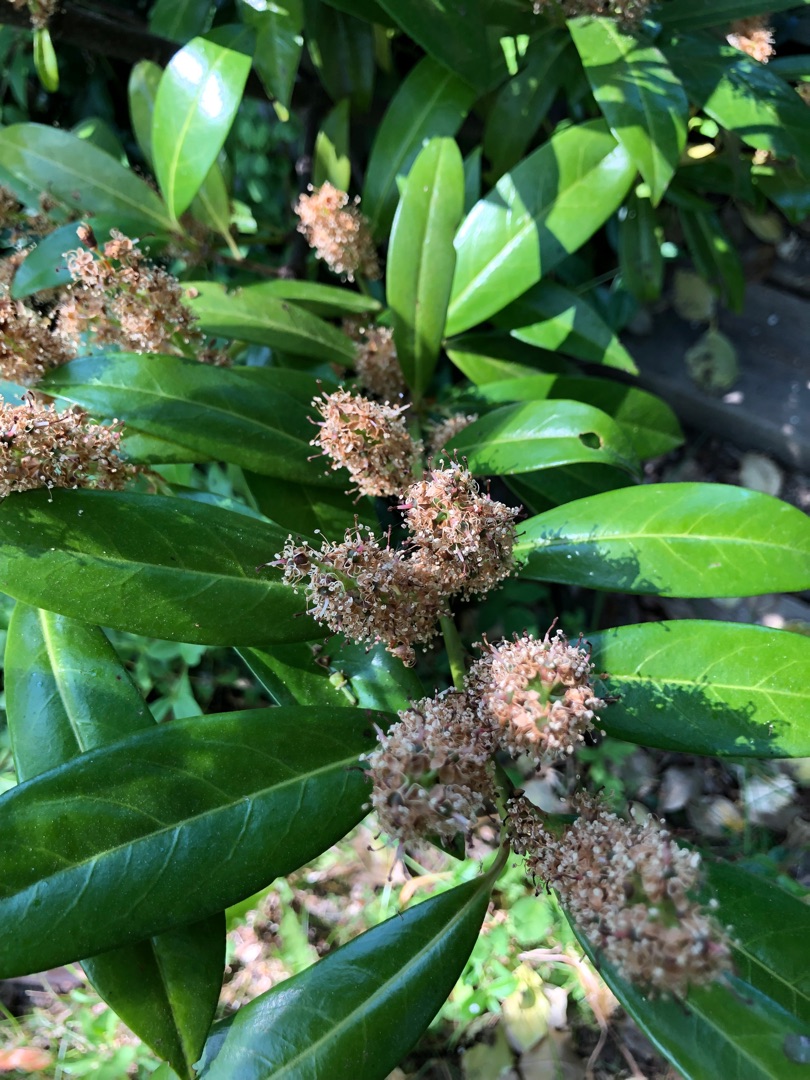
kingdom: Plantae
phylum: Tracheophyta
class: Magnoliopsida
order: Rosales
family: Rosaceae
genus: Prunus
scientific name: Prunus laurocerasus
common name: Laurbærkirsebær
